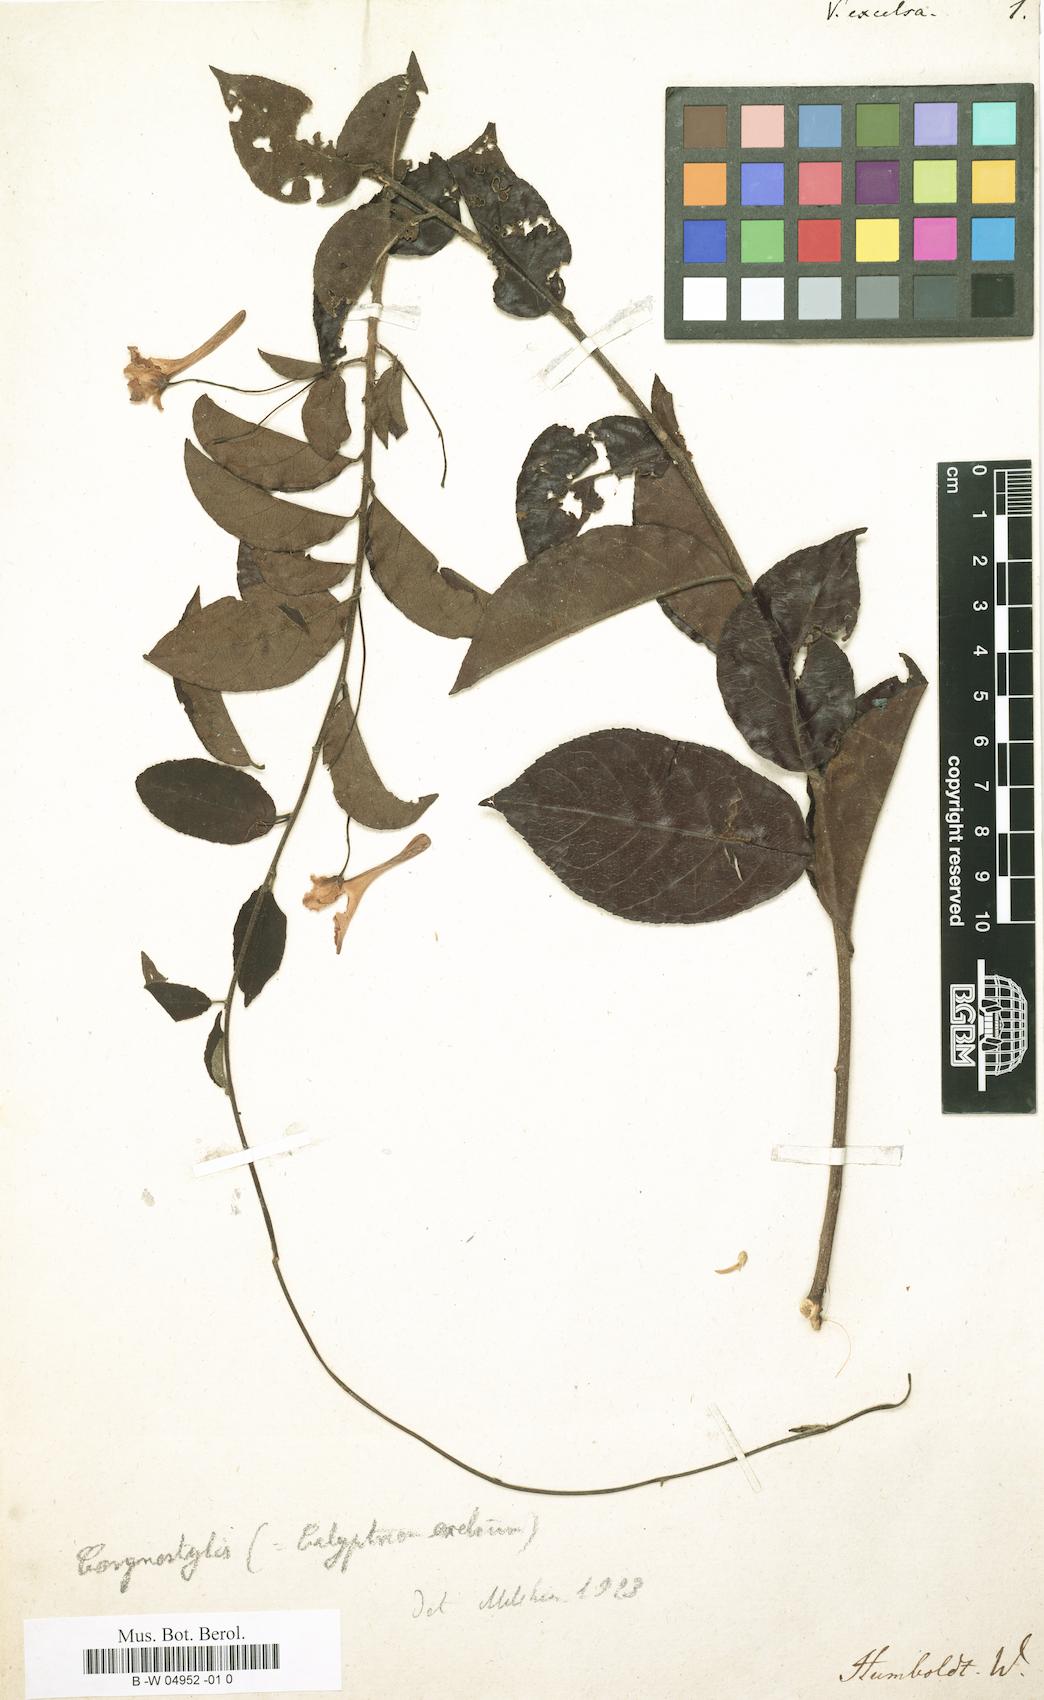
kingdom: Plantae
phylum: Tracheophyta
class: Magnoliopsida
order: Malpighiales
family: Violaceae
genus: Calyptrion
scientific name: Calyptrion arboreum
